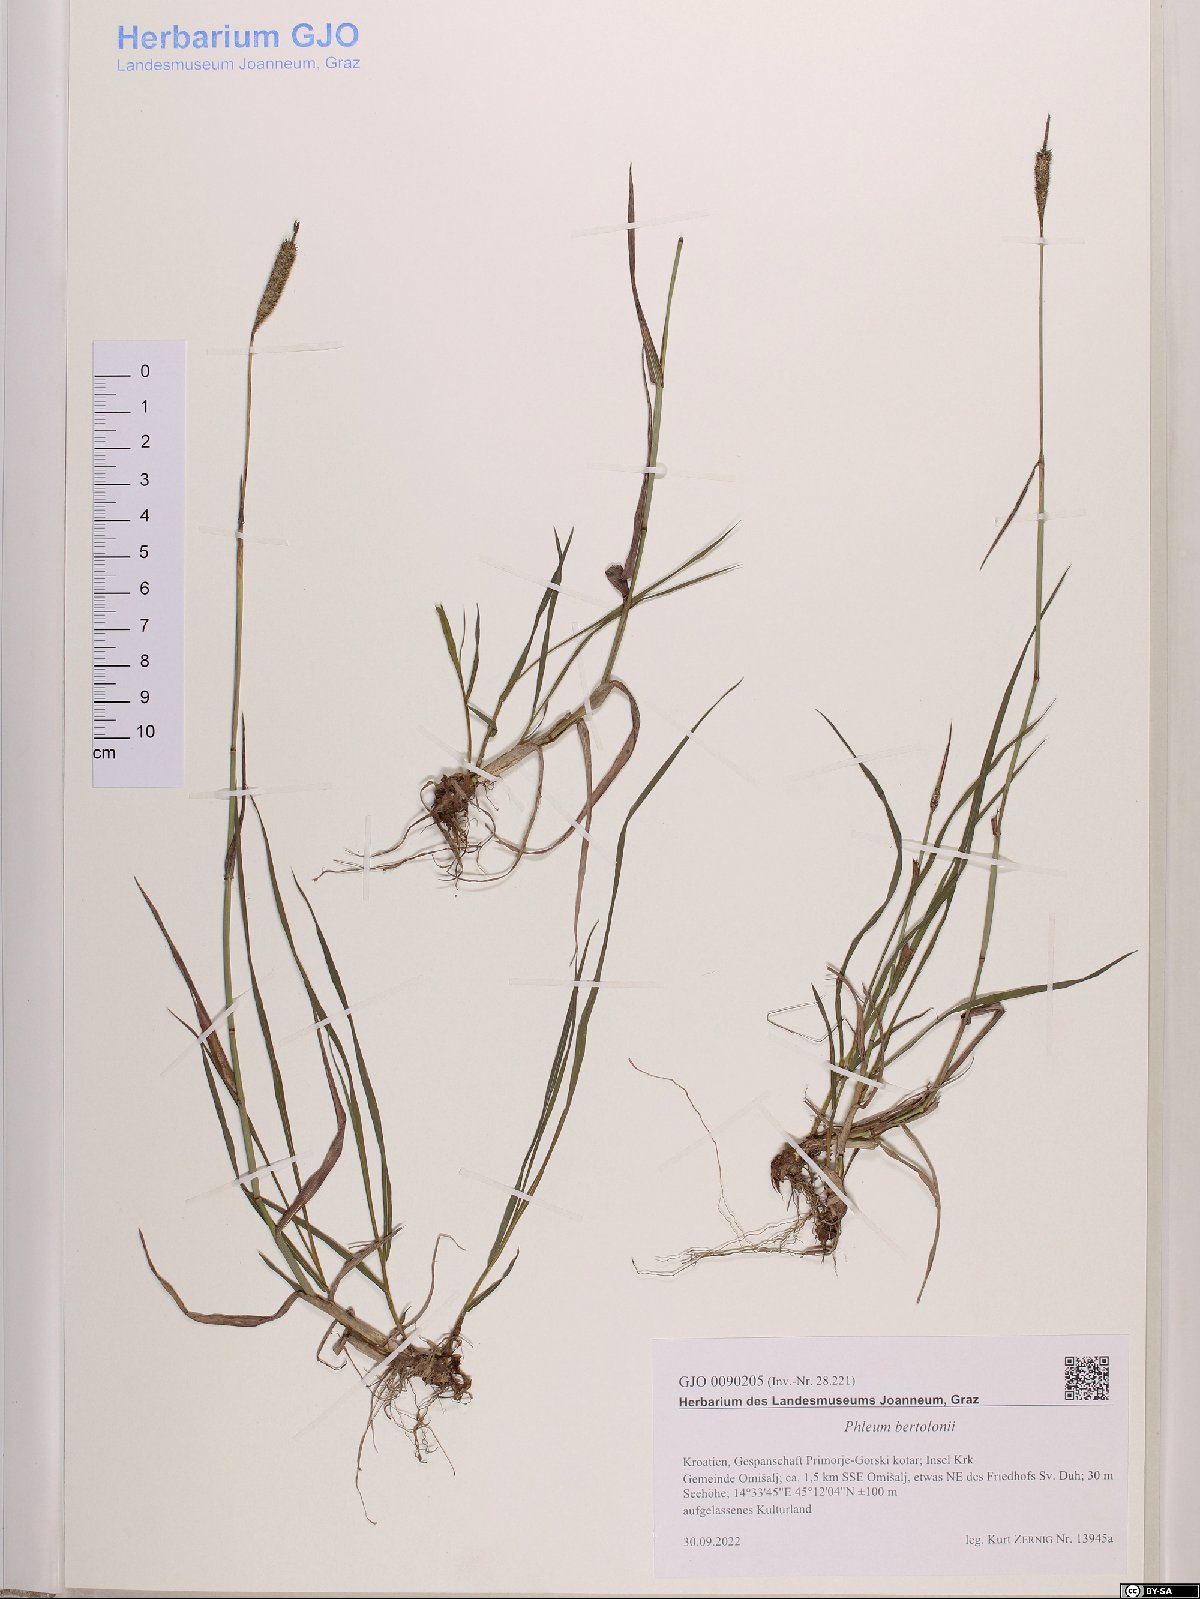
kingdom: Plantae
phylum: Tracheophyta
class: Liliopsida
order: Poales
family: Poaceae
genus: Phleum
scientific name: Phleum bertolonii
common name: Smaller cat's-tail
